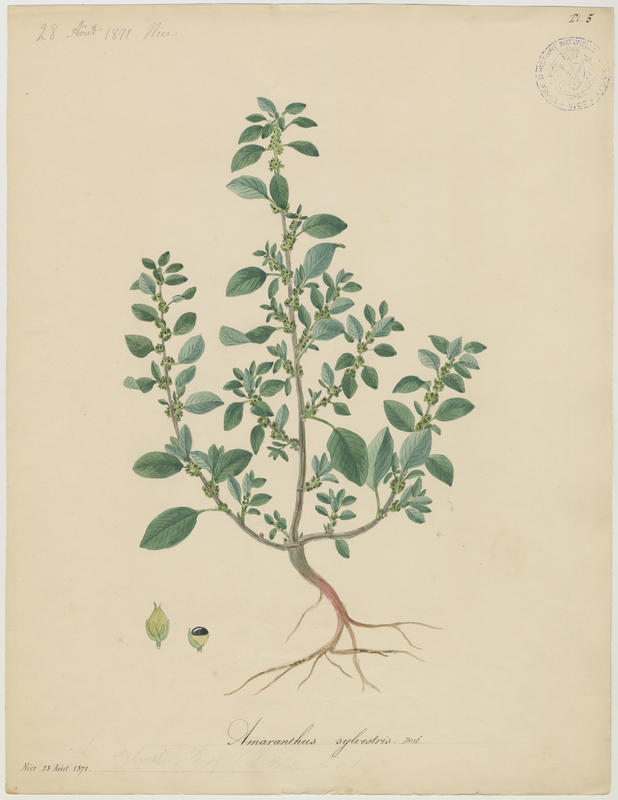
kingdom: Plantae
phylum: Tracheophyta
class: Magnoliopsida
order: Caryophyllales
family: Amaranthaceae
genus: Amaranthus
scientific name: Amaranthus graecizans
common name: Mediterranean amaranth
